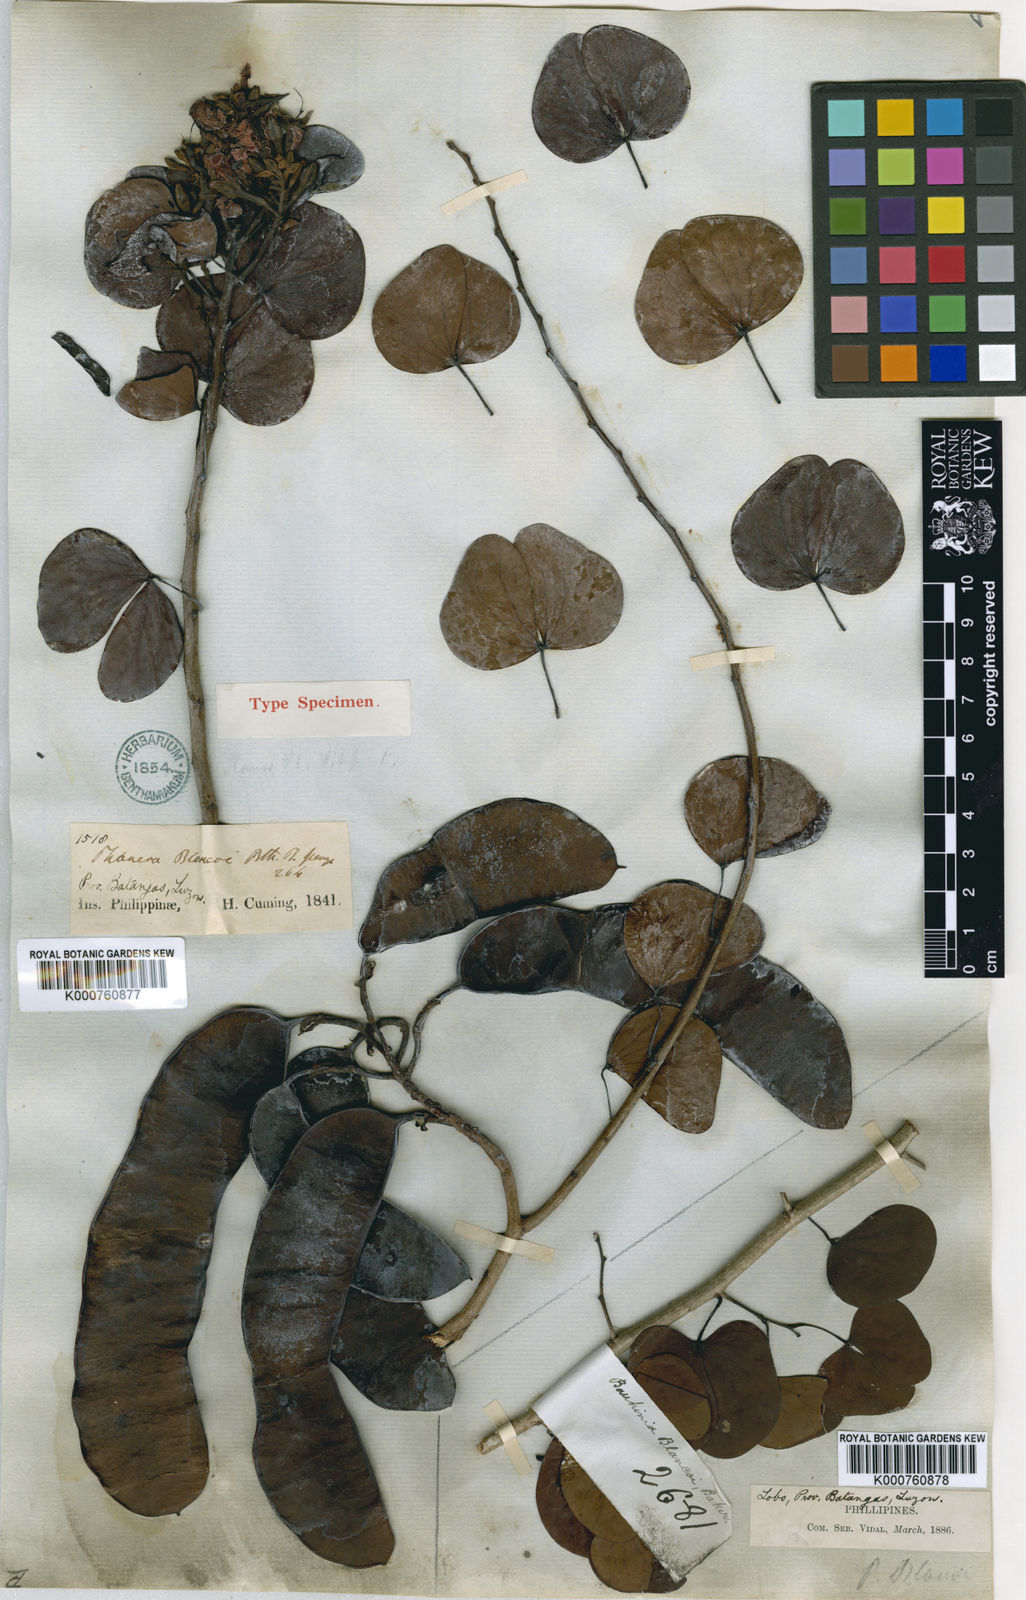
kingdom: Plantae
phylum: Tracheophyta
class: Magnoliopsida
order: Fabales
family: Fabaceae
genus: Lysiphyllum
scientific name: Lysiphyllum binatum
